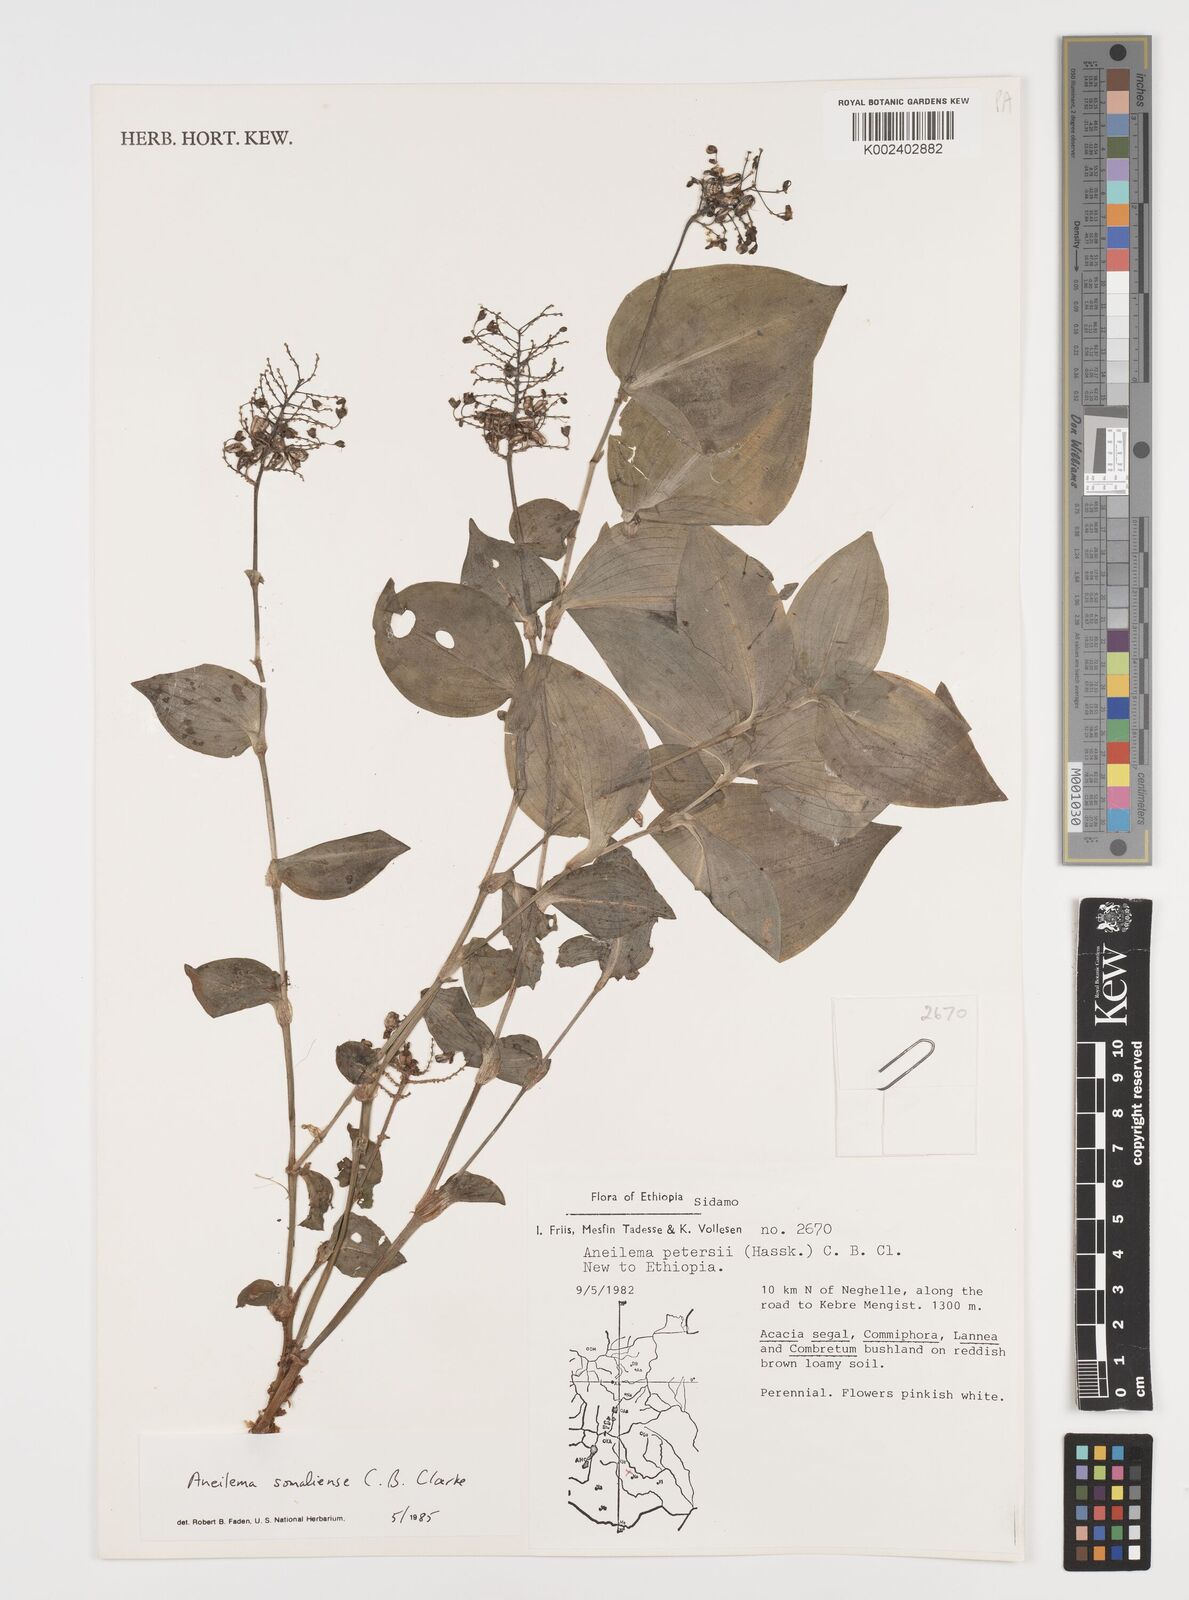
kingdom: Plantae
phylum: Tracheophyta
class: Liliopsida
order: Commelinales
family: Commelinaceae
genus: Aneilema
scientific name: Aneilema somaliense
